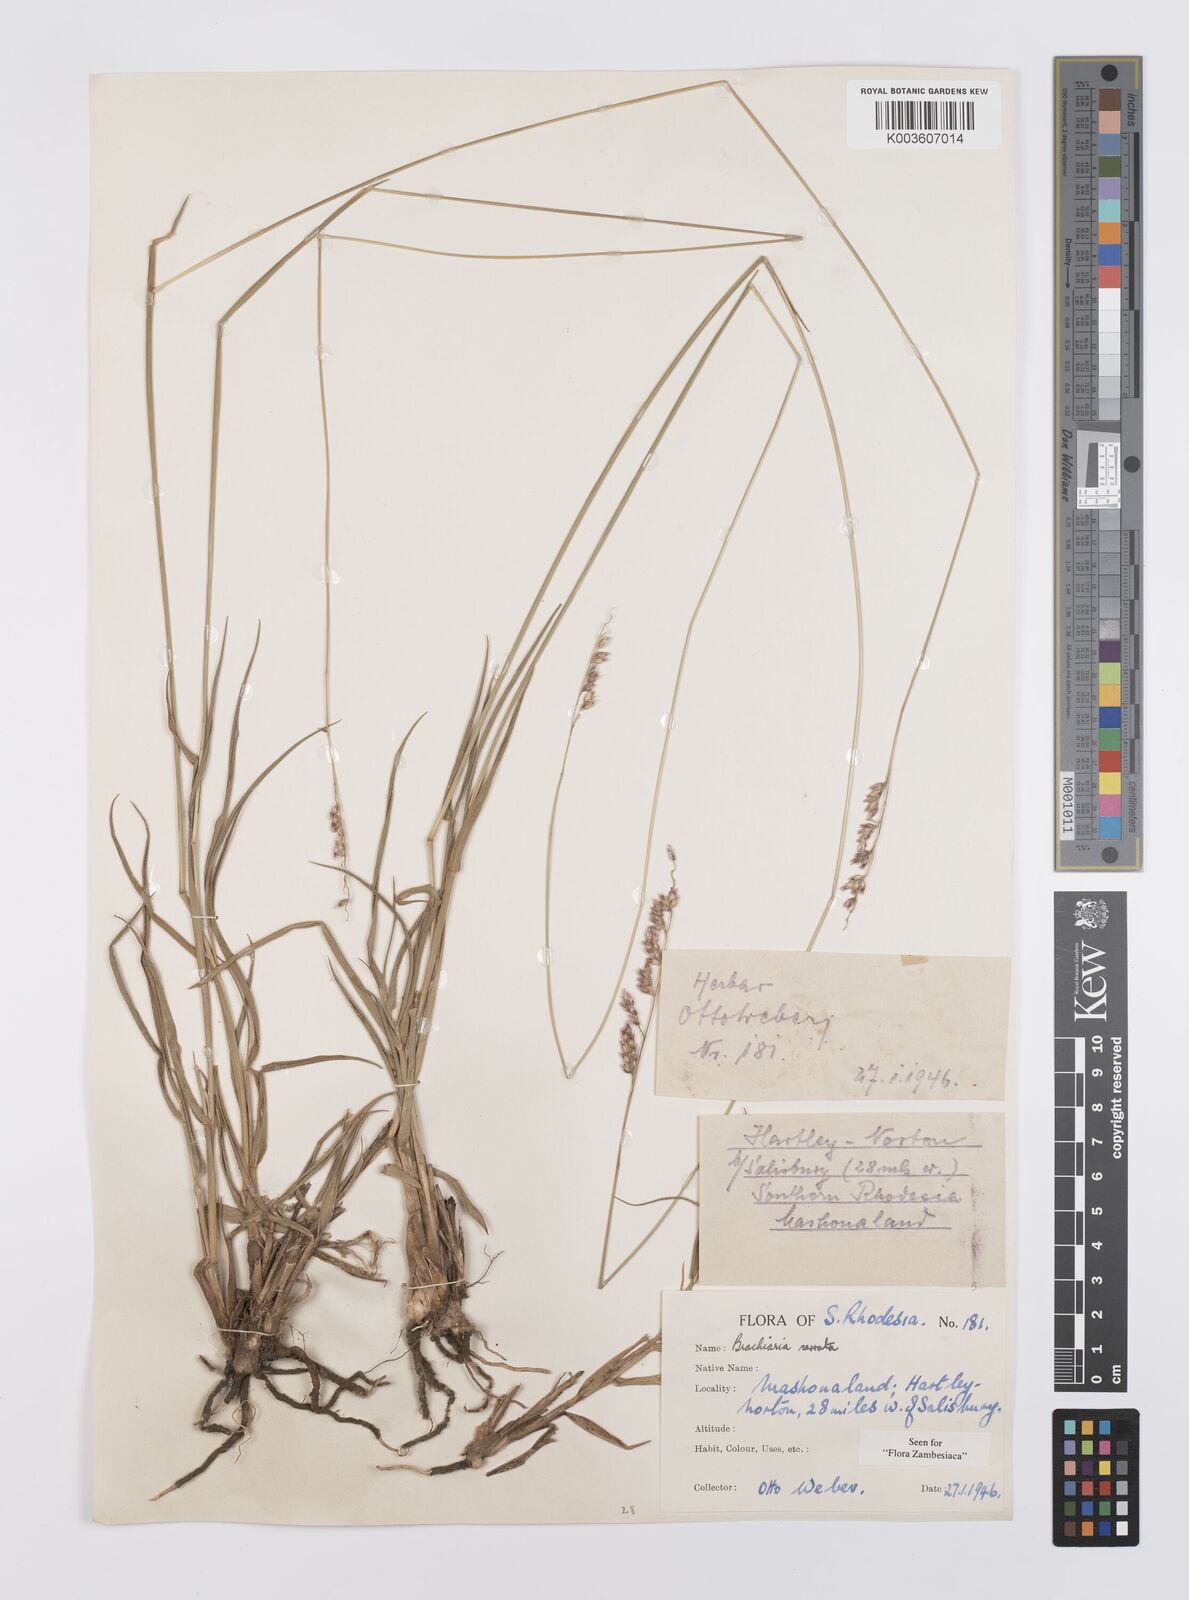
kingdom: Plantae
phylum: Tracheophyta
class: Liliopsida
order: Poales
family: Poaceae
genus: Urochloa
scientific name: Urochloa serrata
